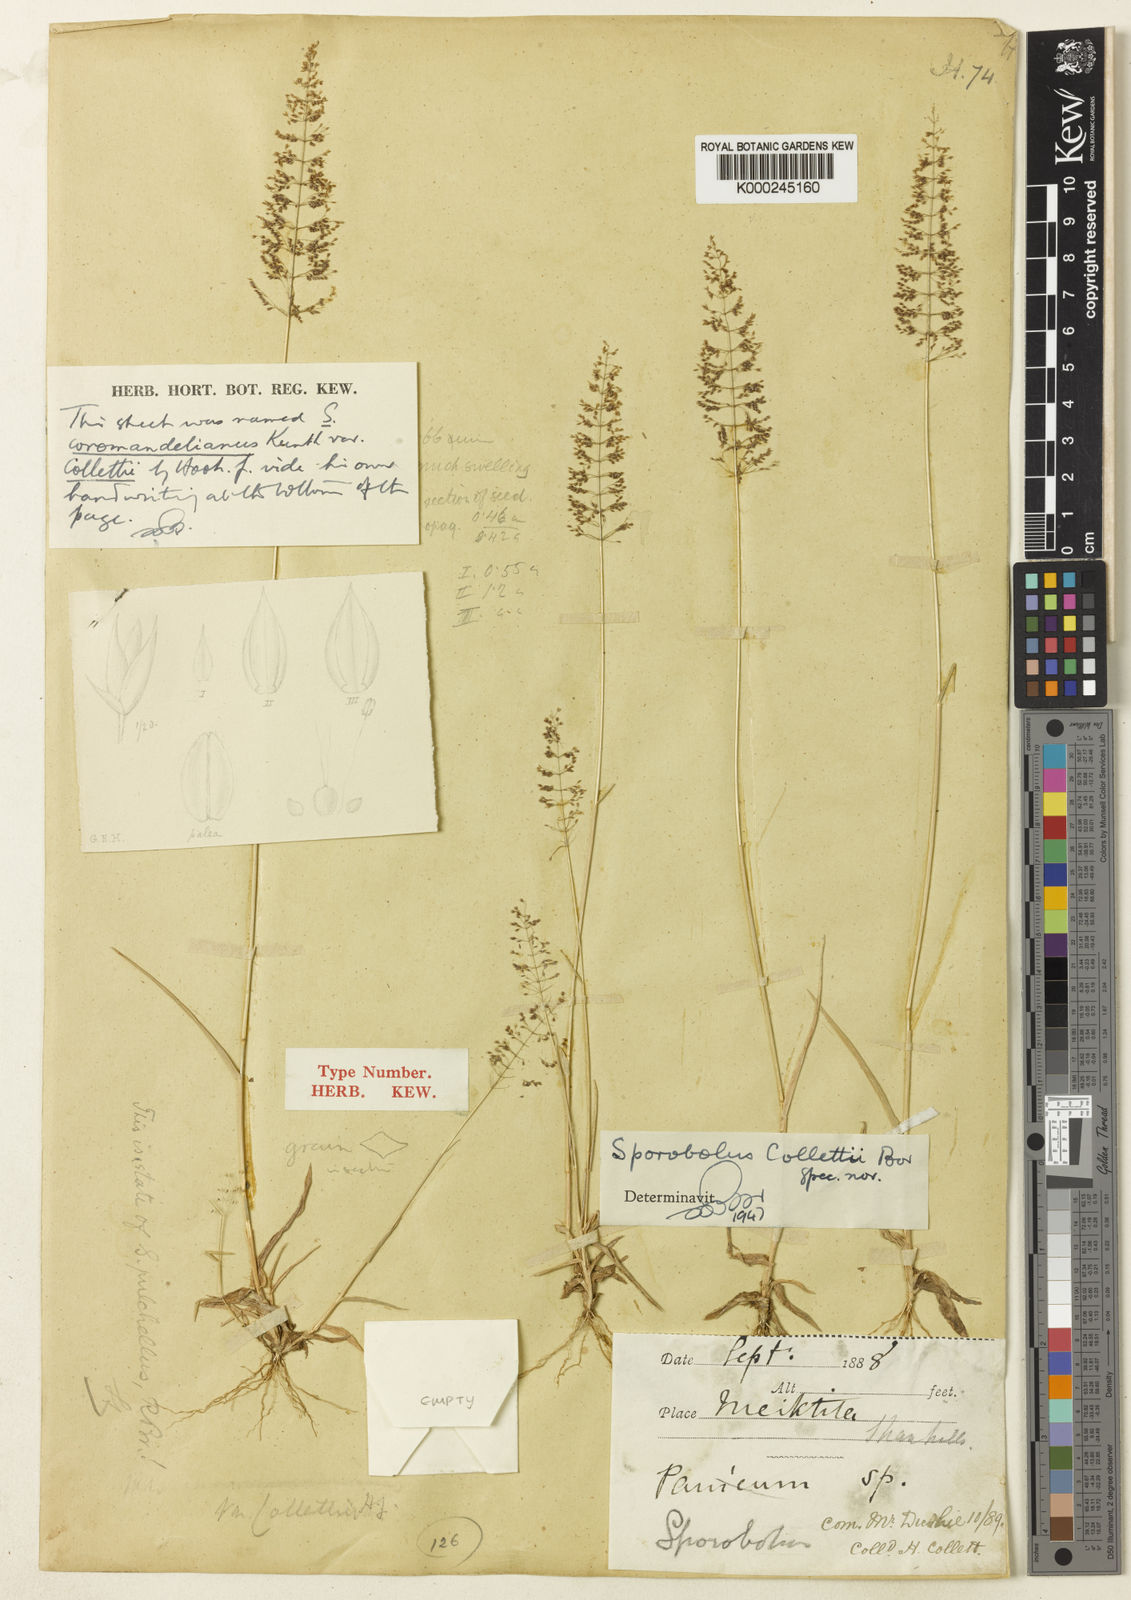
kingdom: Plantae
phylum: Tracheophyta
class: Liliopsida
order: Poales
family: Poaceae
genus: Sporobolus
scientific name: Sporobolus collettii
